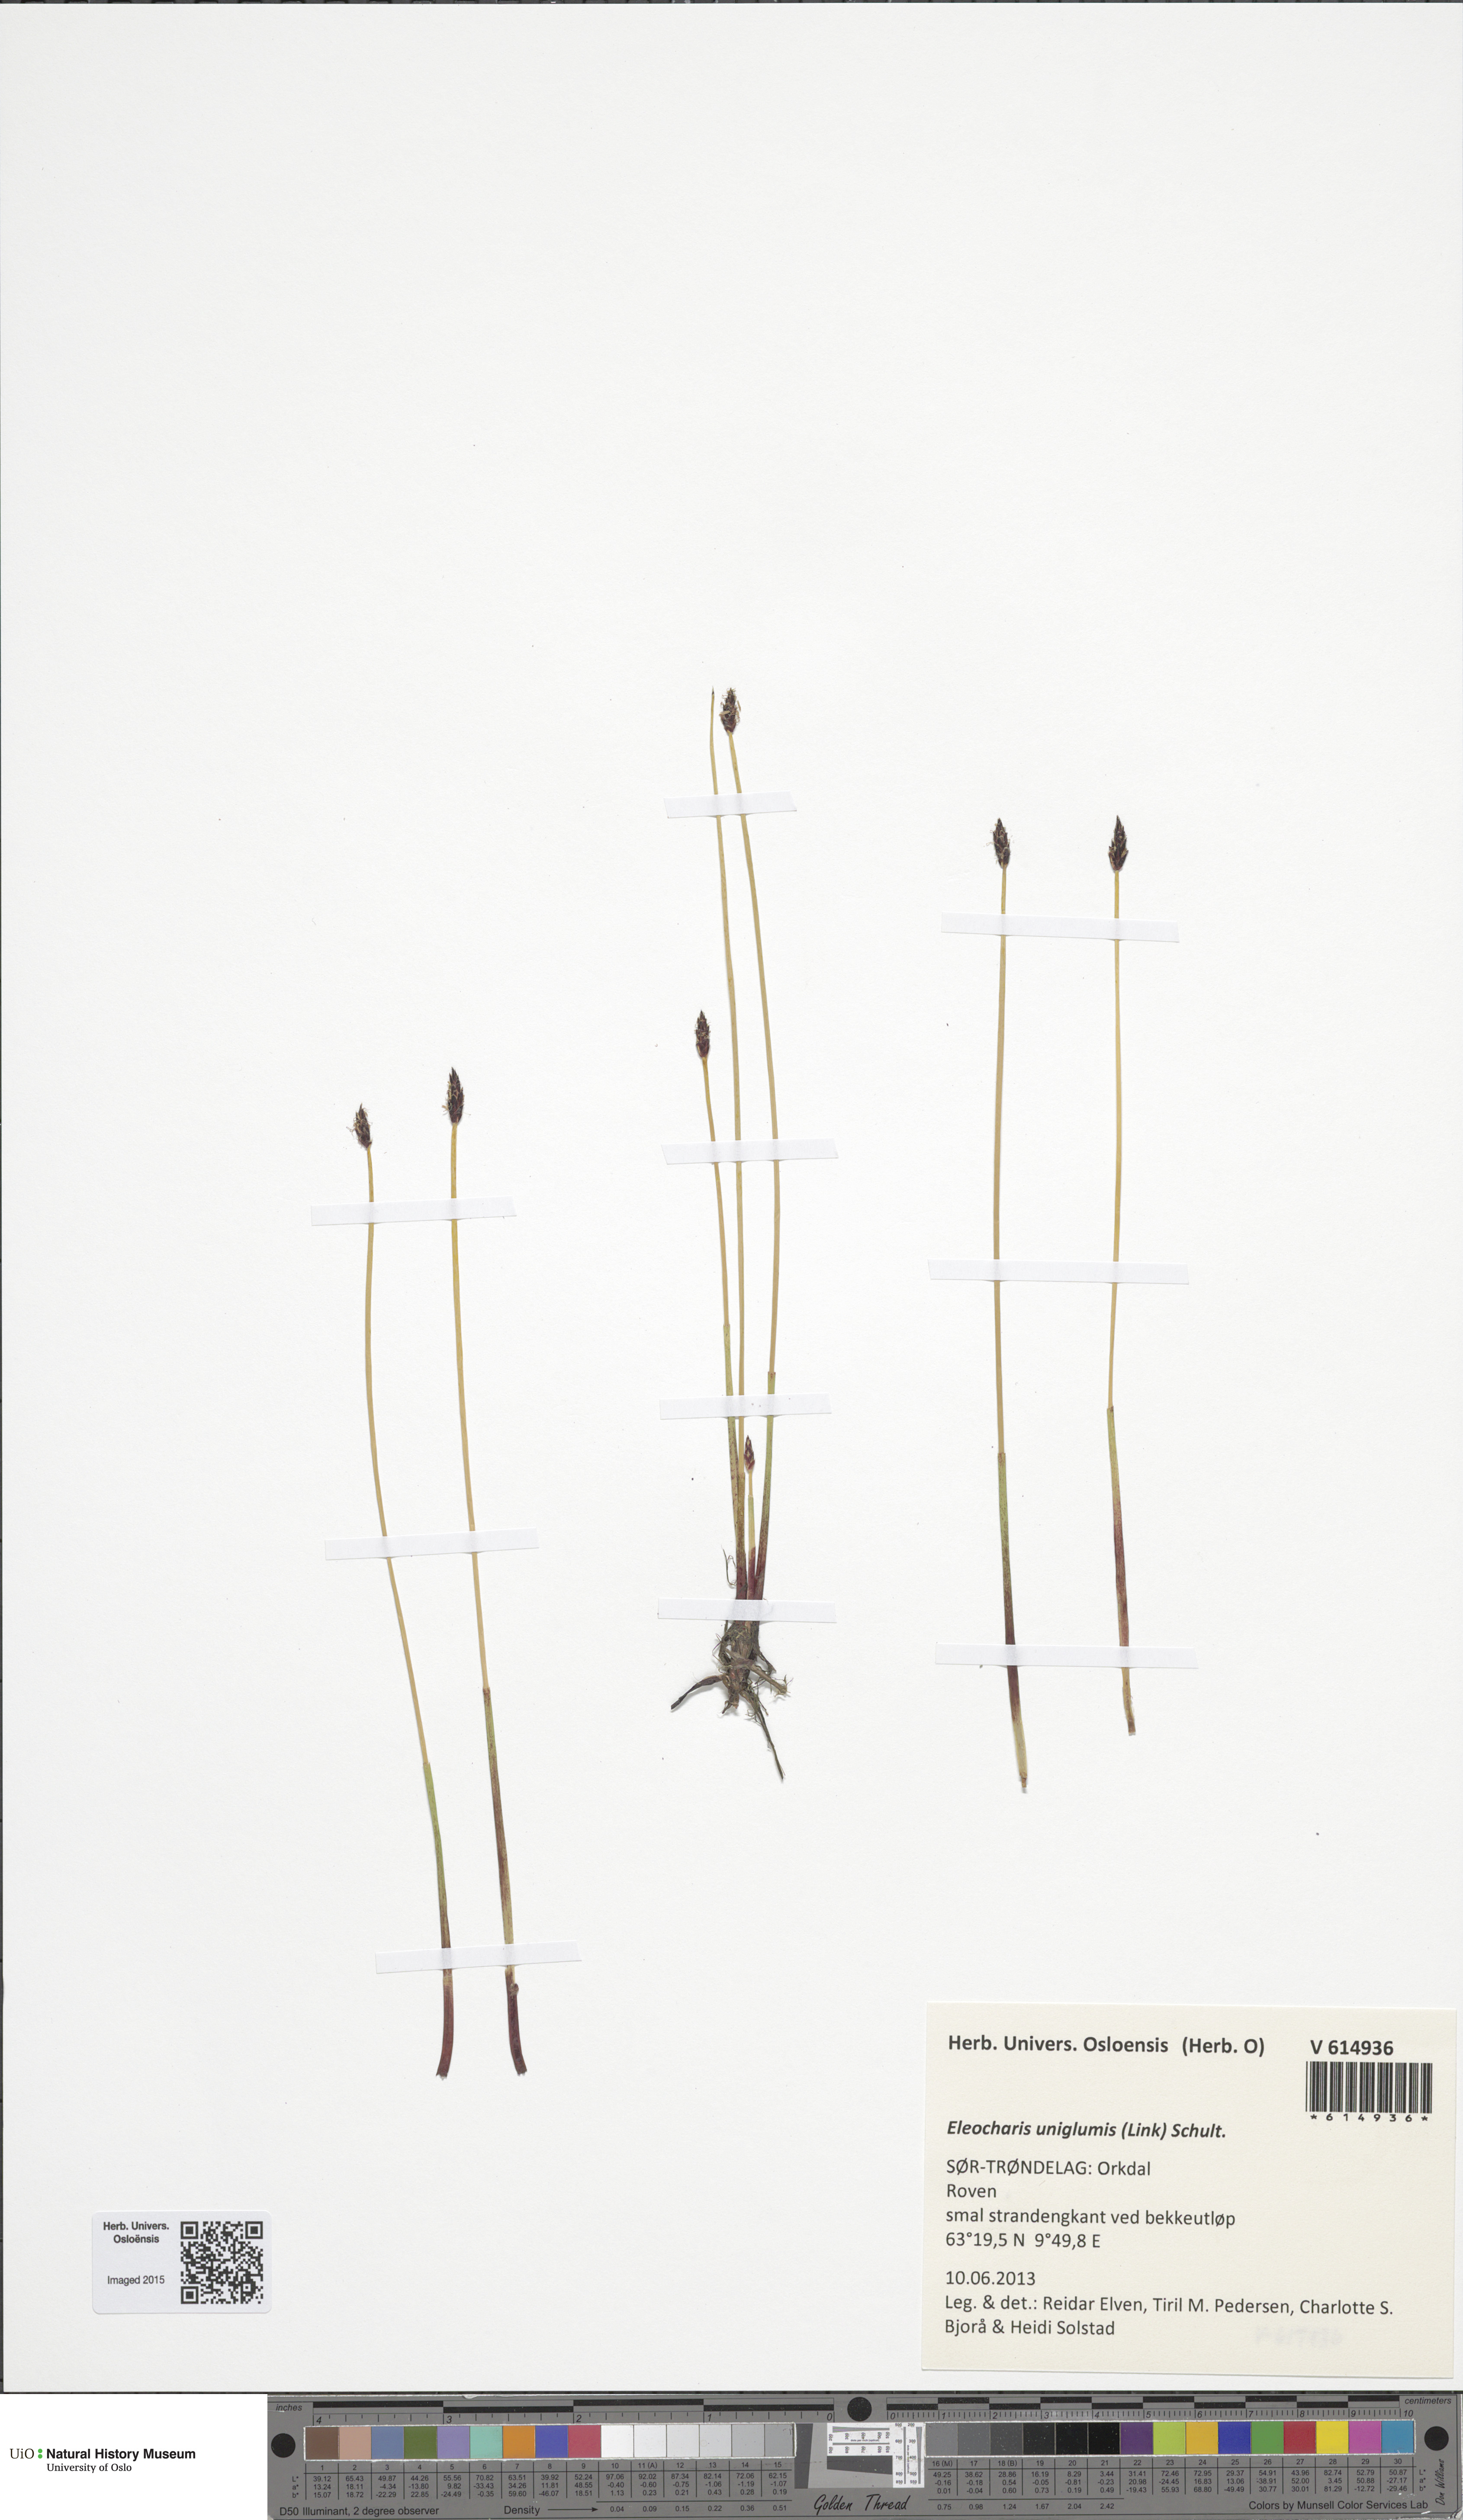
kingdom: Plantae
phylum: Tracheophyta
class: Liliopsida
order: Poales
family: Cyperaceae
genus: Eleocharis
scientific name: Eleocharis uniglumis
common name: Slender spike-rush
